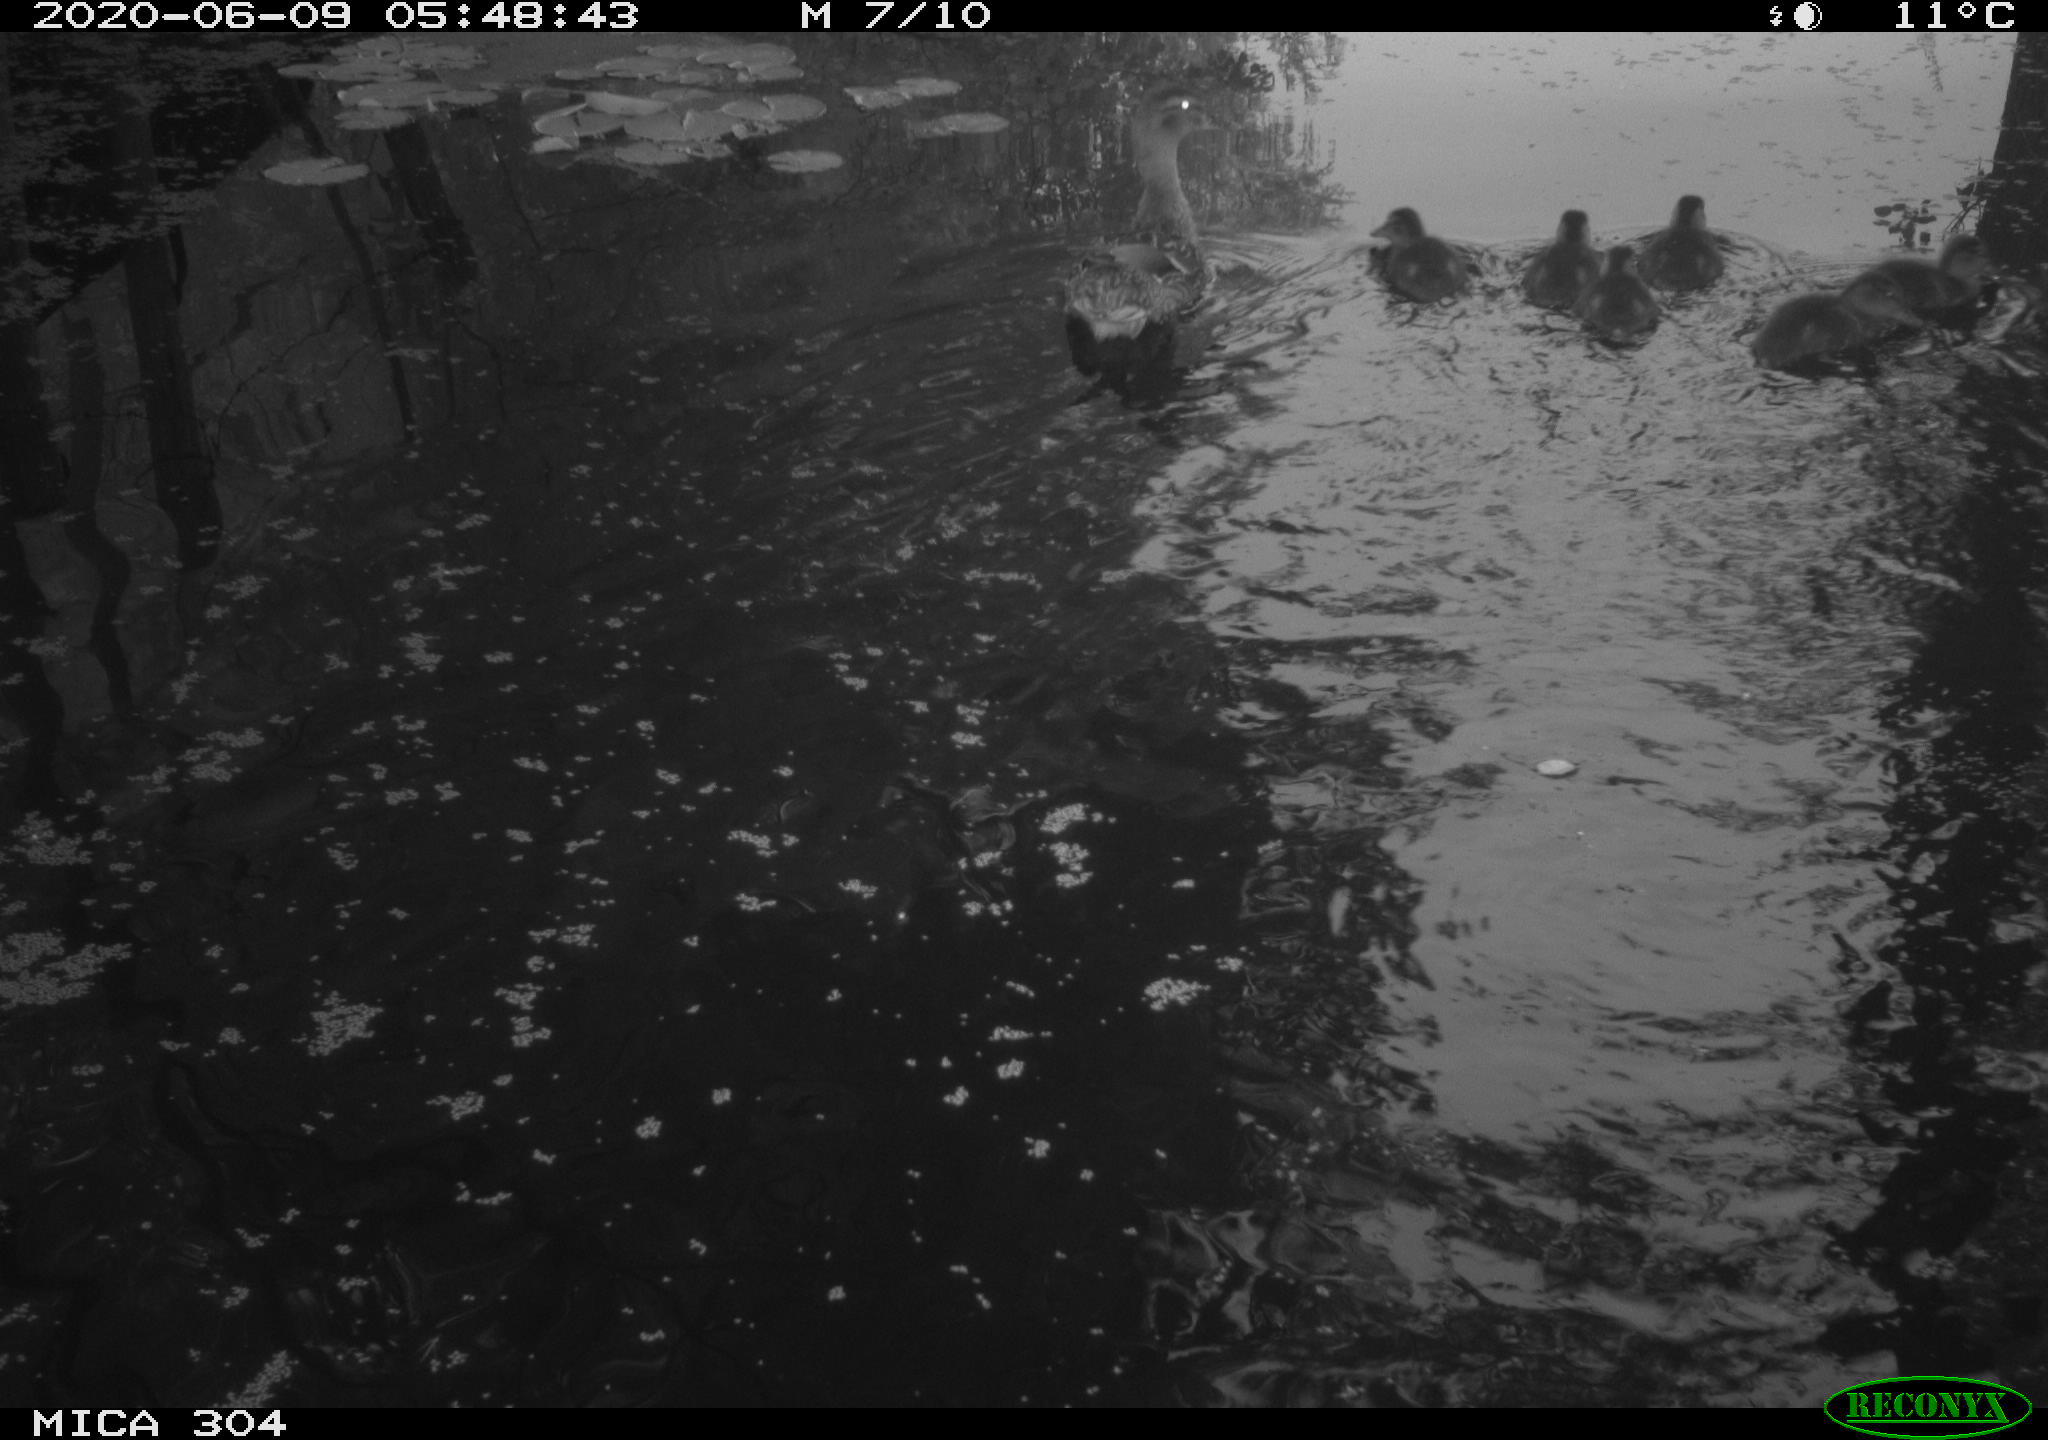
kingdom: Animalia
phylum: Chordata
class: Aves
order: Anseriformes
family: Anatidae
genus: Anas
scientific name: Anas platyrhynchos
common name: Mallard
